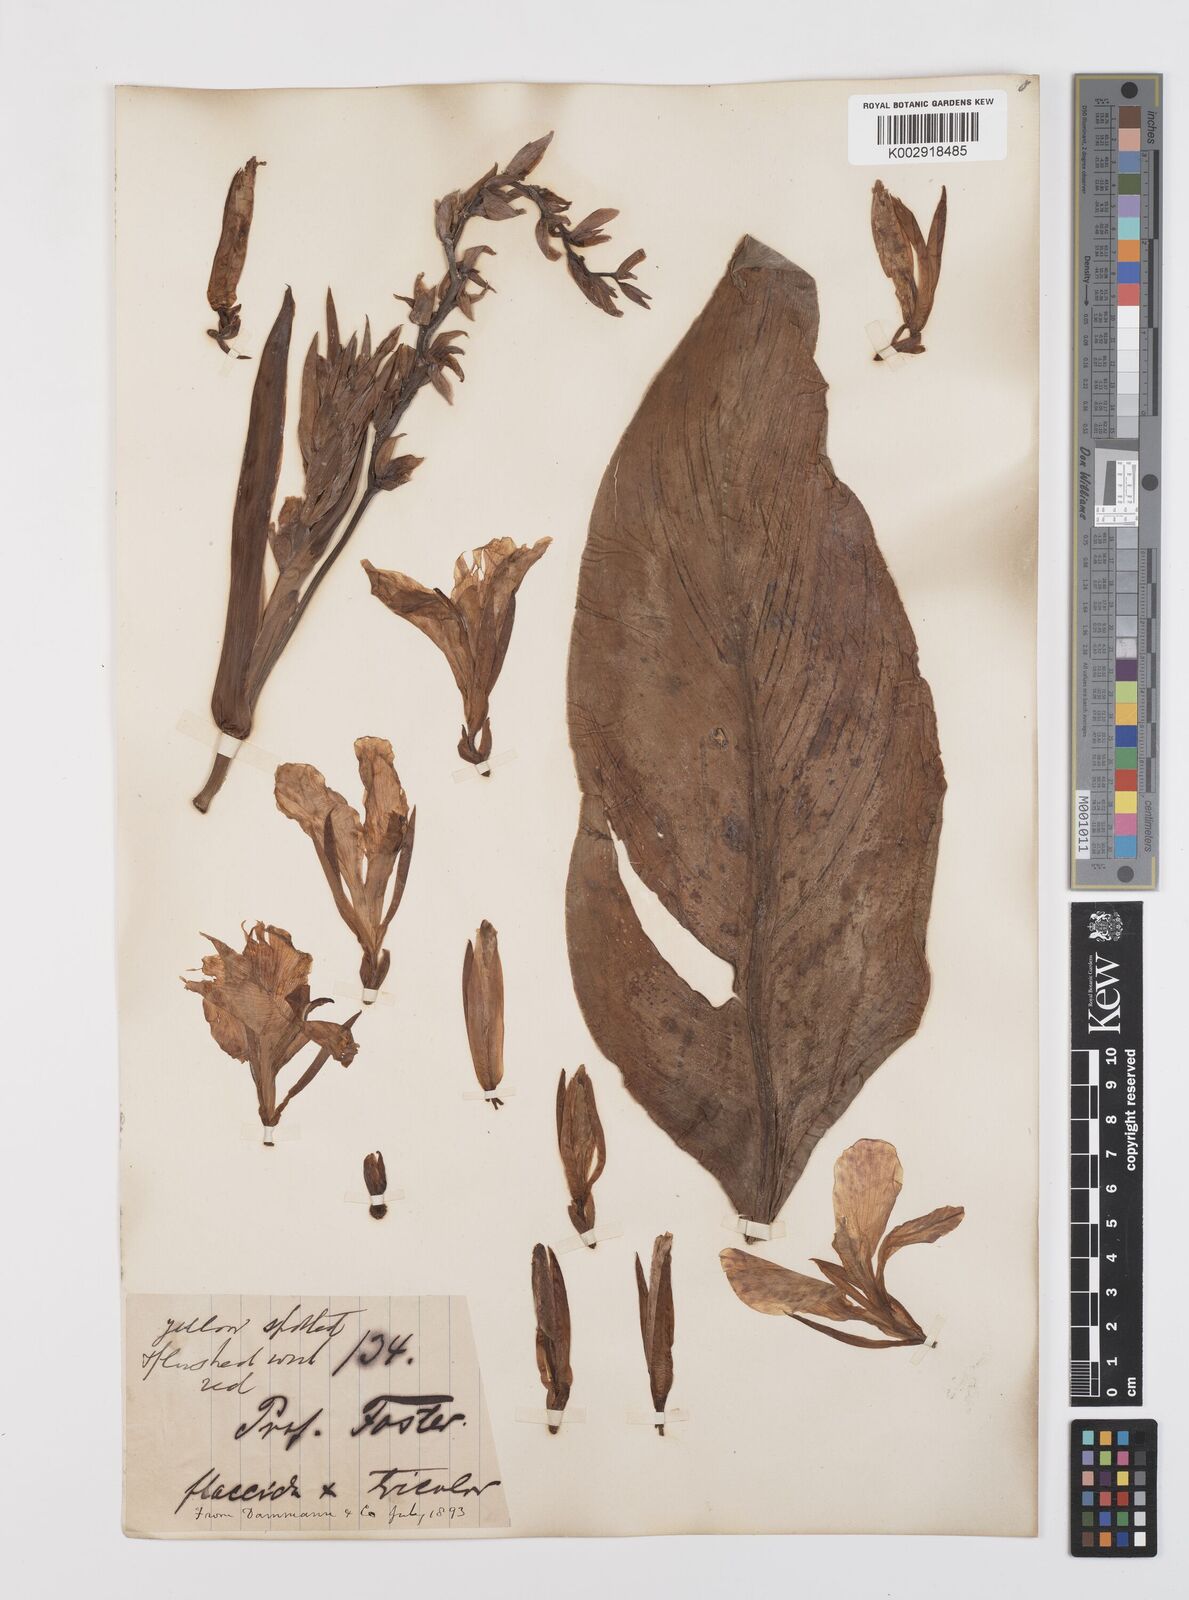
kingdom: Plantae
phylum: Tracheophyta
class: Liliopsida
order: Zingiberales
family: Cannaceae
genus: Canna
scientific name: Canna
